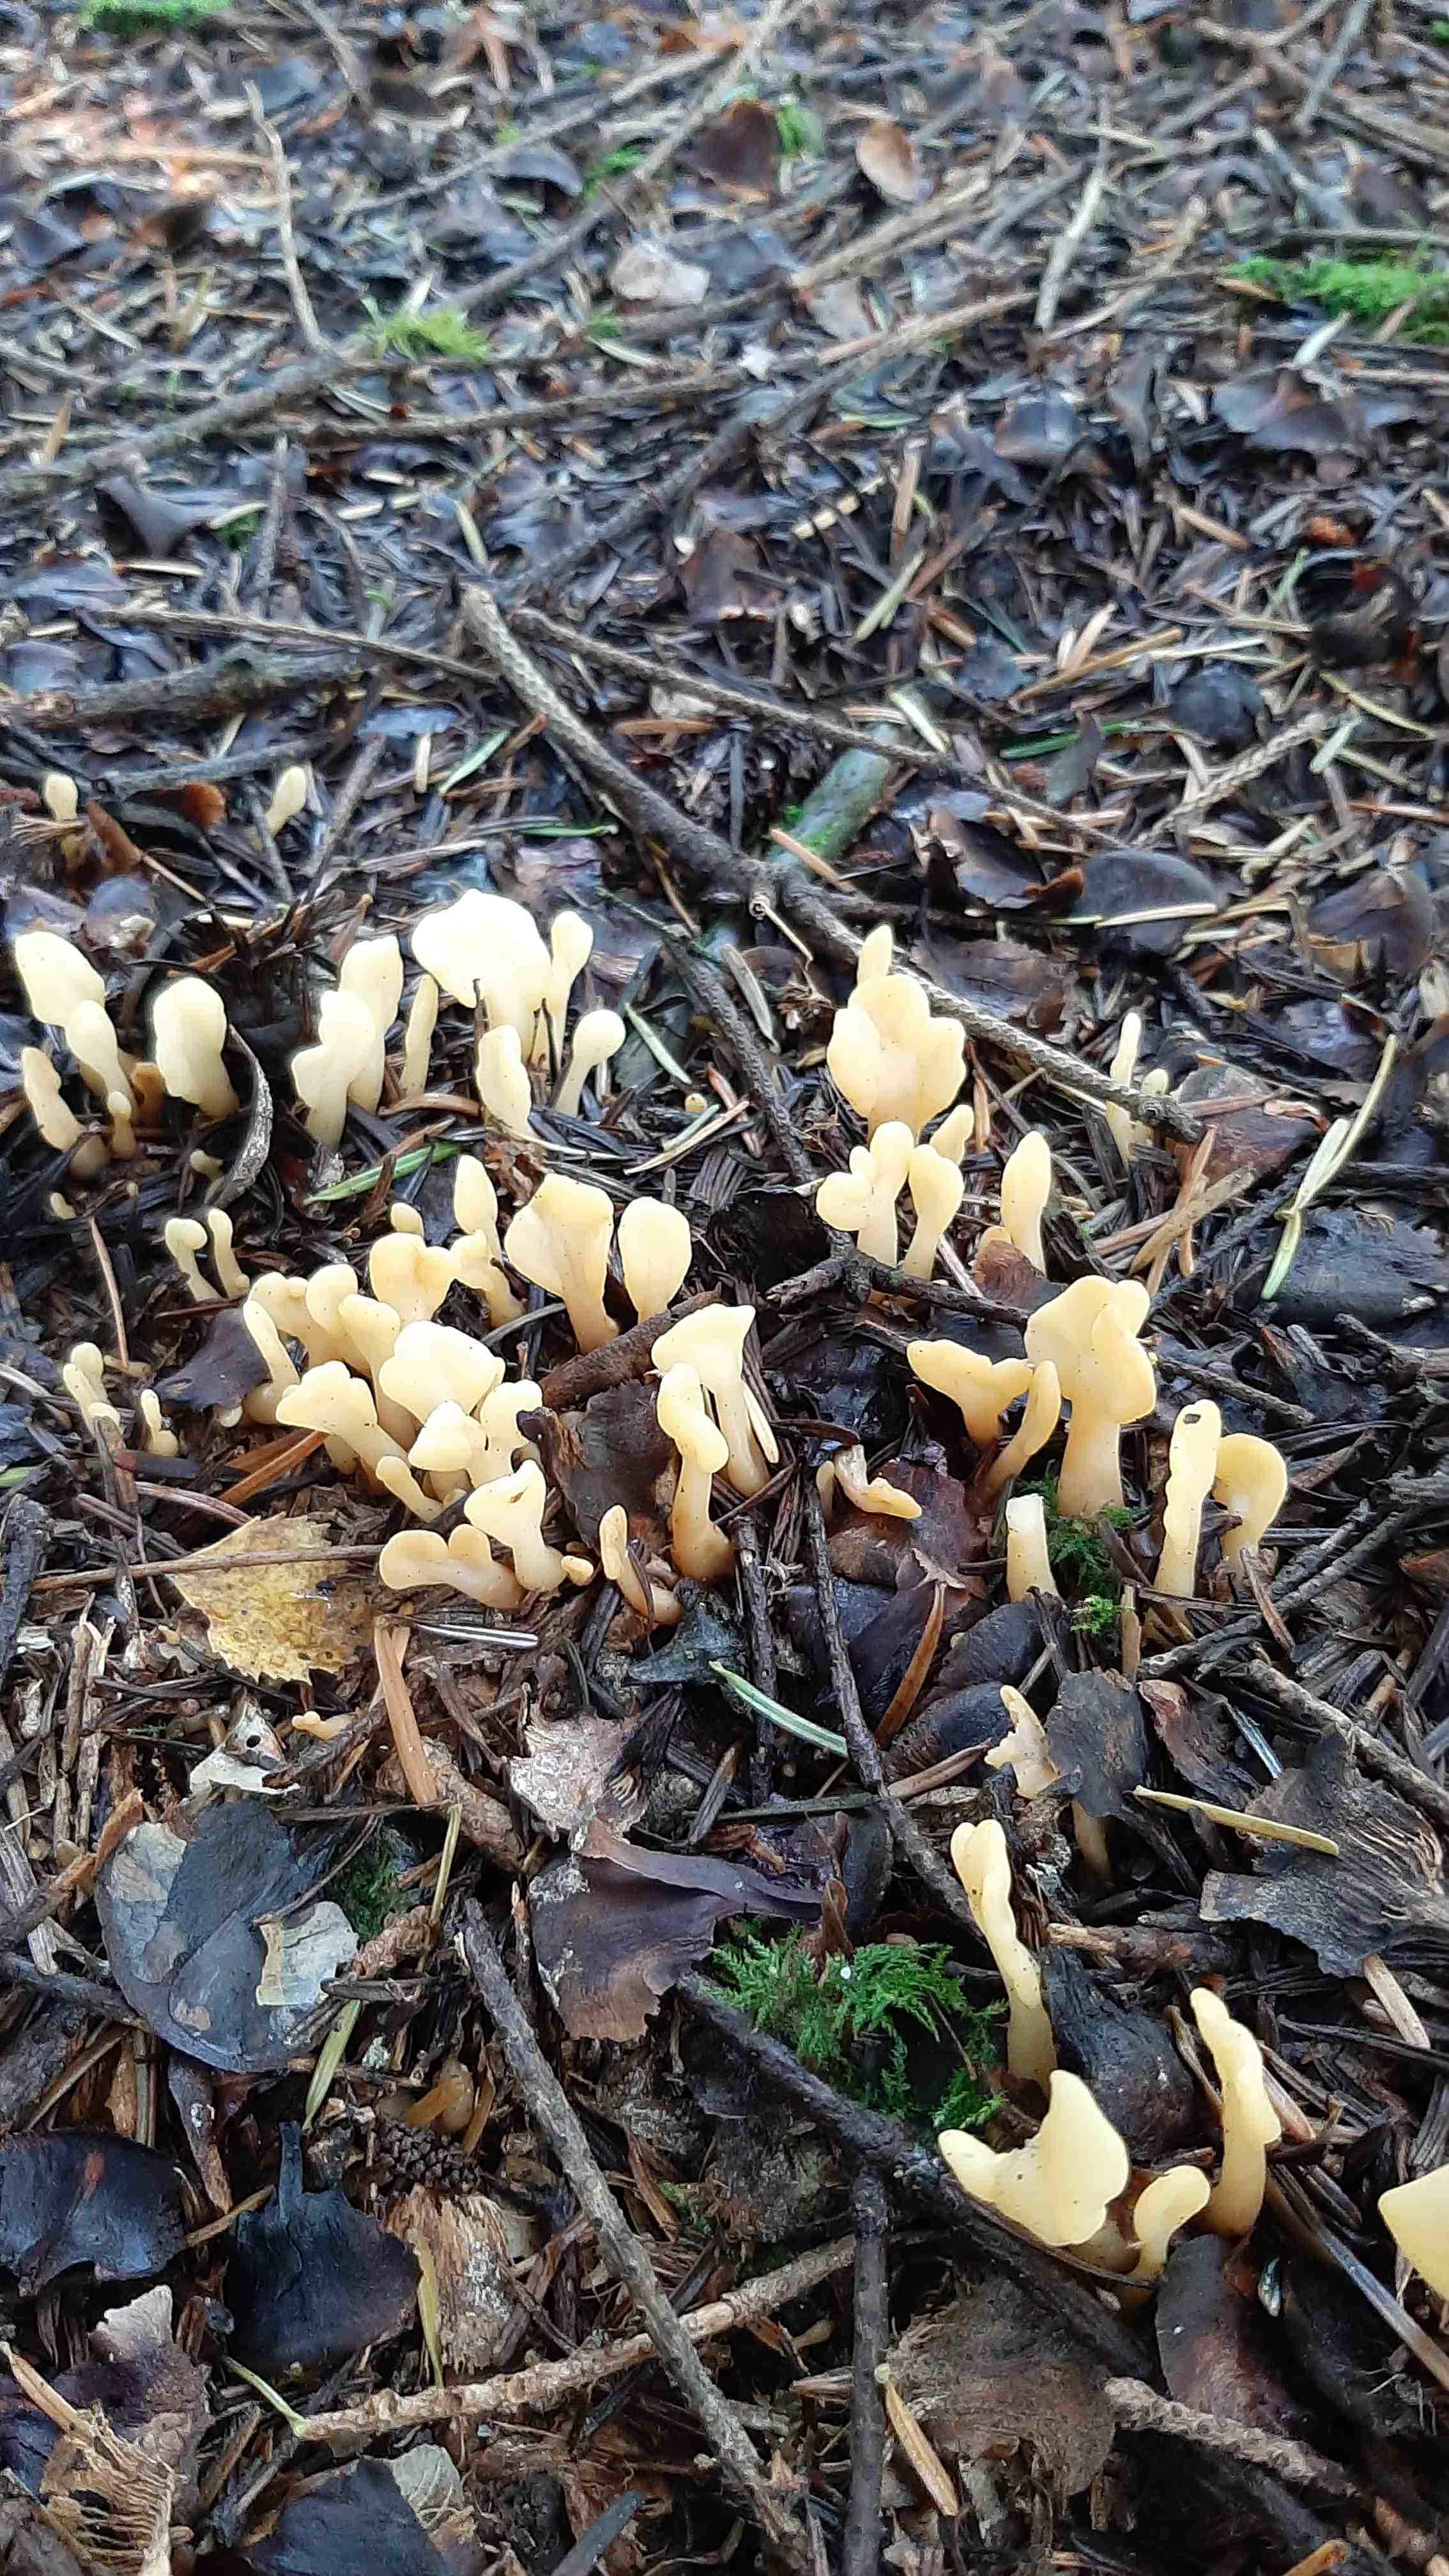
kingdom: Fungi
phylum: Ascomycota
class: Leotiomycetes
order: Rhytismatales
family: Cudoniaceae
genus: Spathularia
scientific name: Spathularia flavida
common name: gul spatelsvamp
